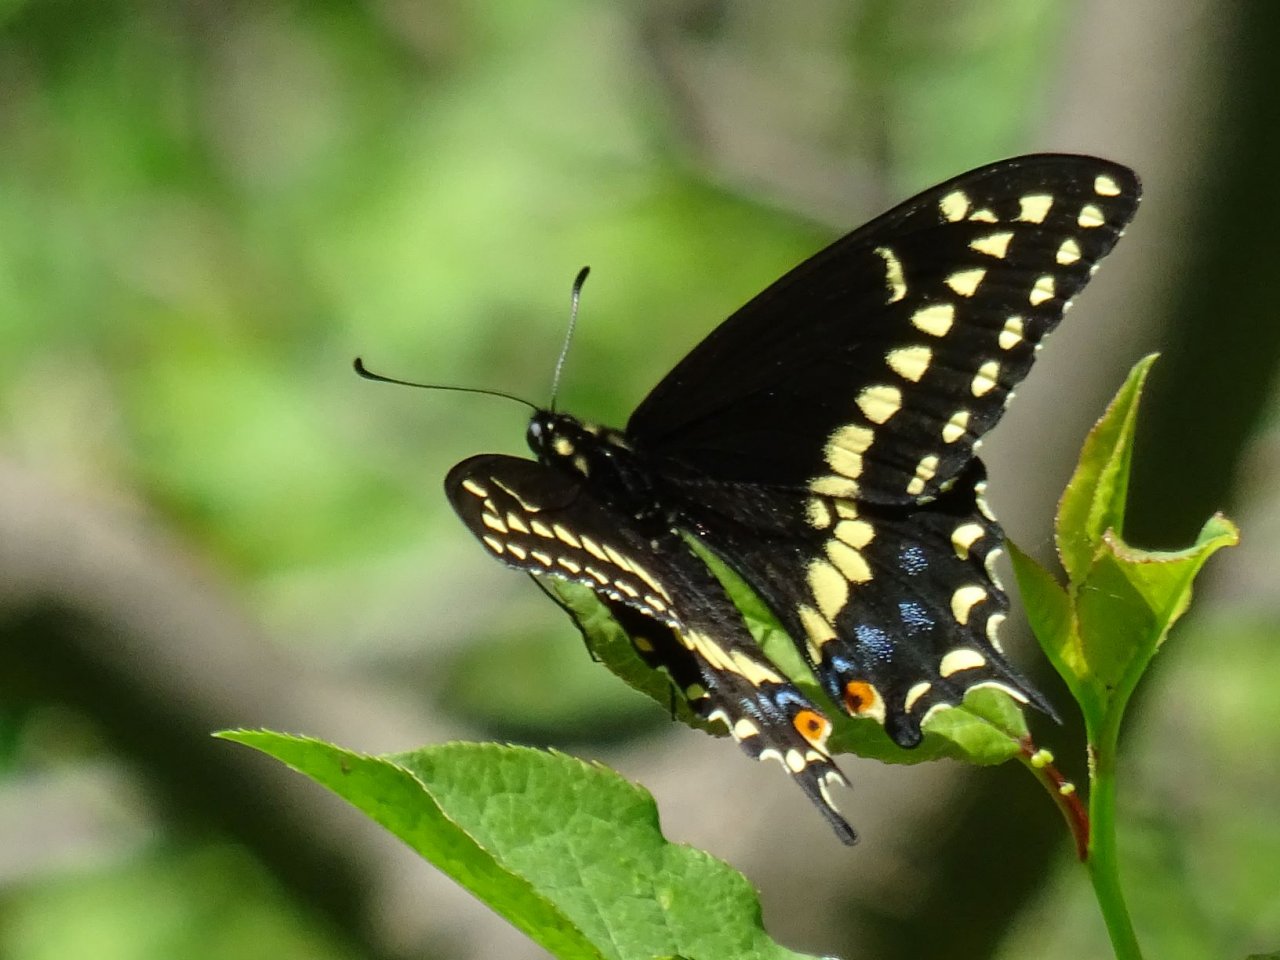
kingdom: Animalia
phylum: Arthropoda
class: Insecta
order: Lepidoptera
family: Papilionidae
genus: Papilio
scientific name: Papilio polyxenes
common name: Black Swallowtail
